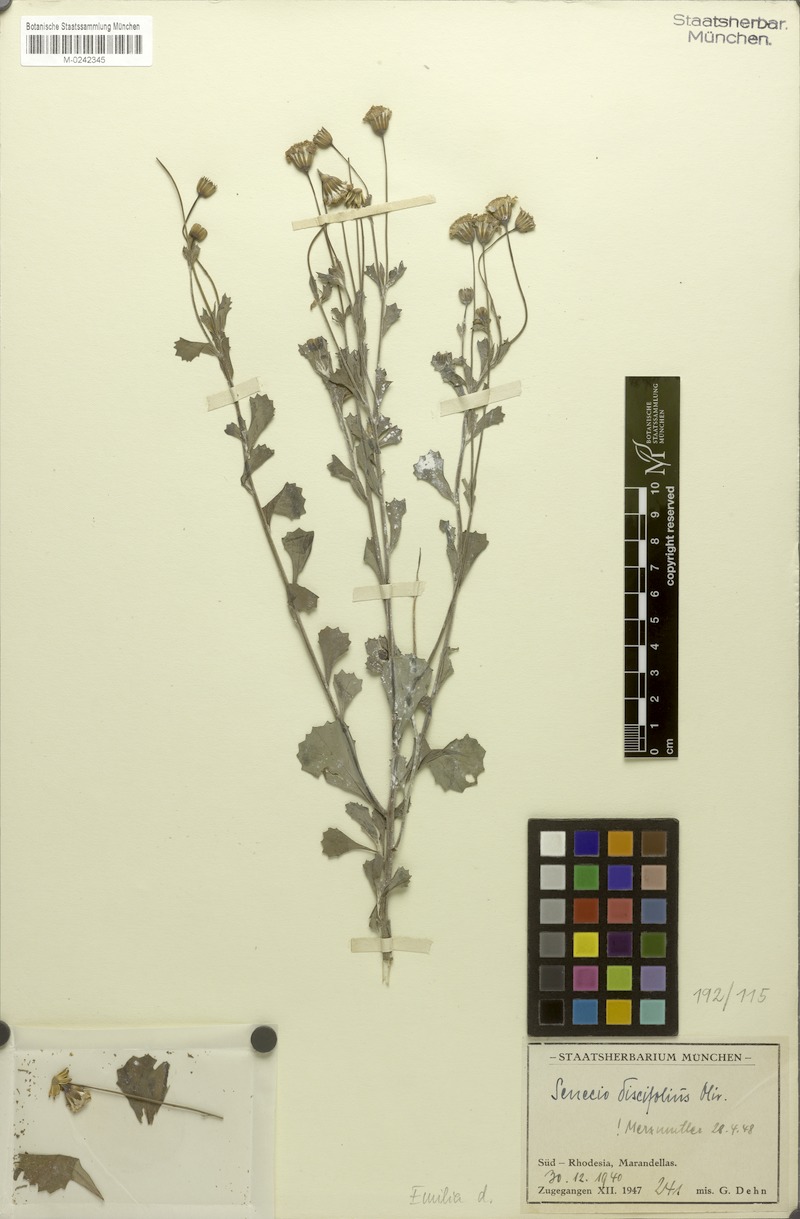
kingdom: Plantae
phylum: Tracheophyta
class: Magnoliopsida
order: Asterales
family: Asteraceae
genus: Emilia
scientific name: Emilia discifolia
